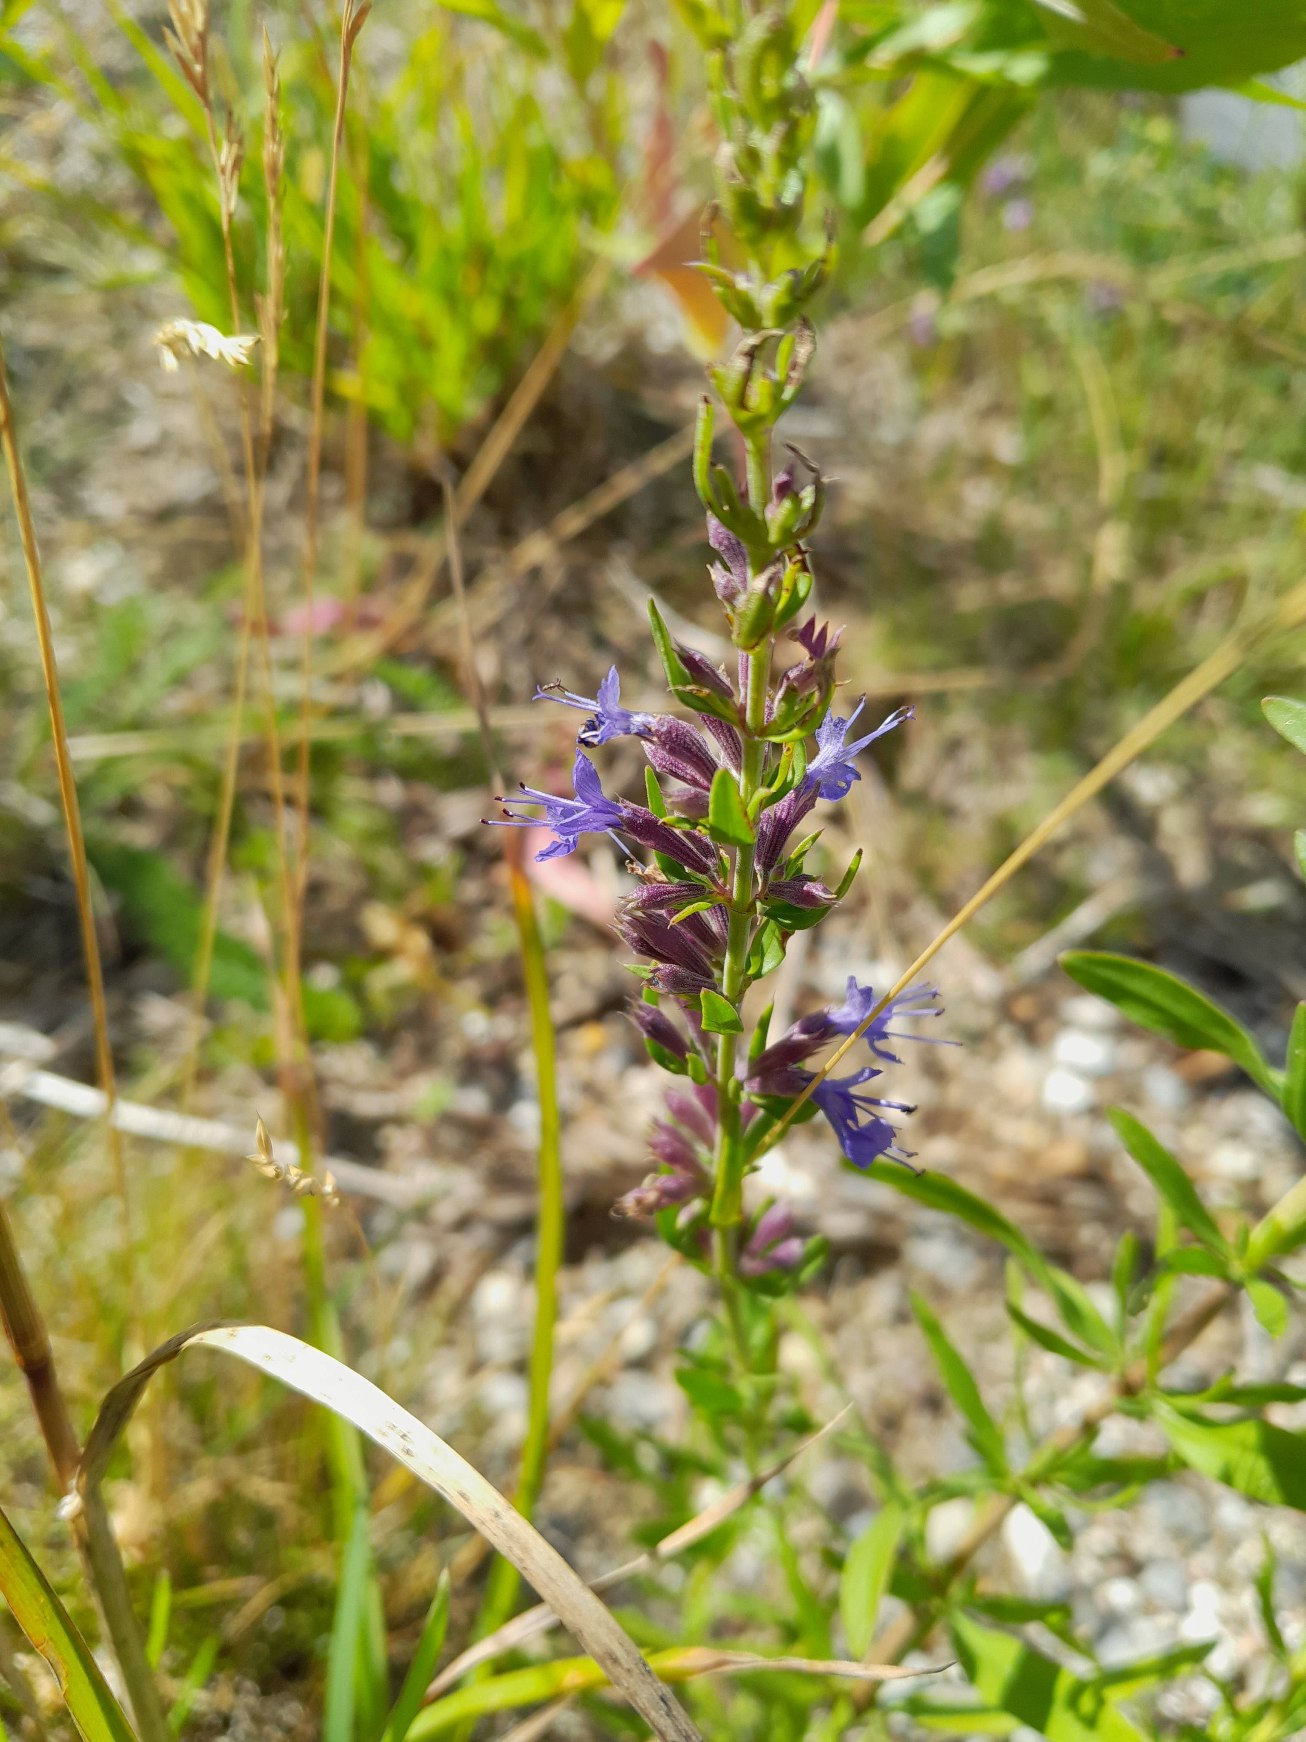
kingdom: Plantae
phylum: Tracheophyta
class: Magnoliopsida
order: Lamiales
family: Lamiaceae
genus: Hyssopus
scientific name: Hyssopus officinalis
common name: Isop
